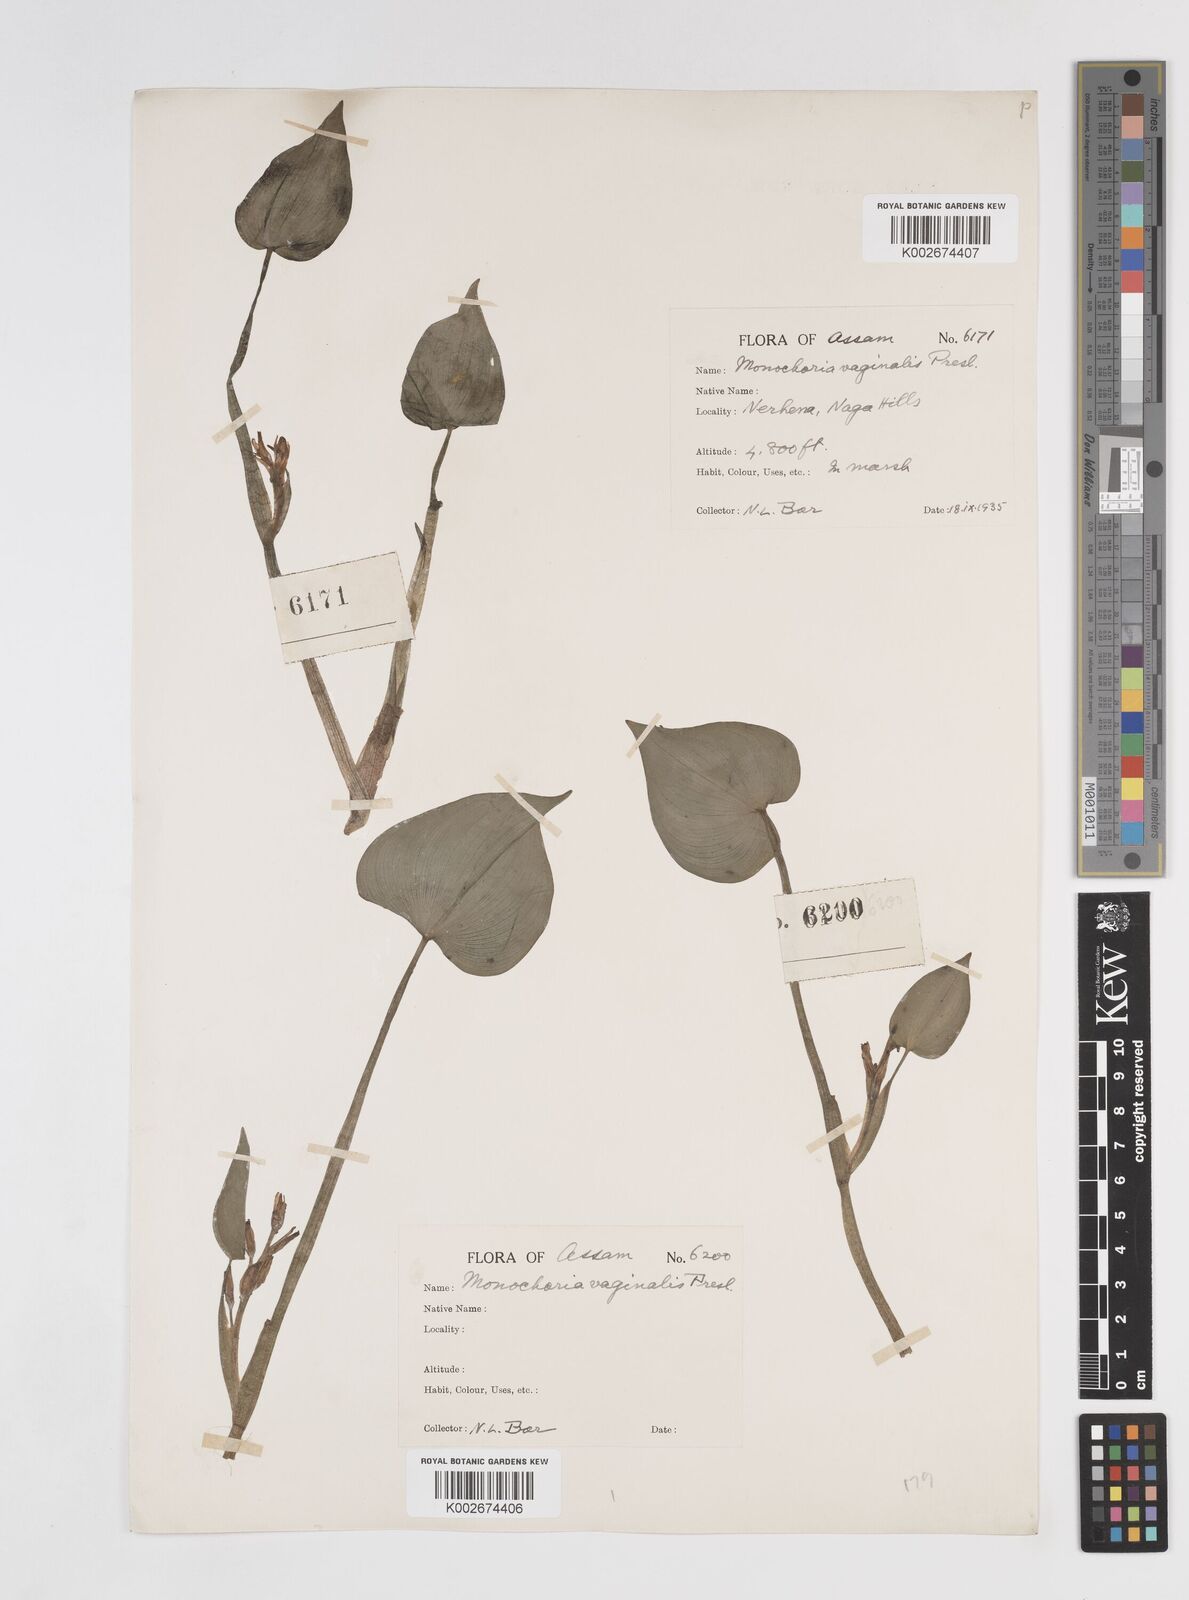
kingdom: Plantae
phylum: Tracheophyta
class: Liliopsida
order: Commelinales
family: Pontederiaceae
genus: Pontederia
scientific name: Pontederia vaginalis
